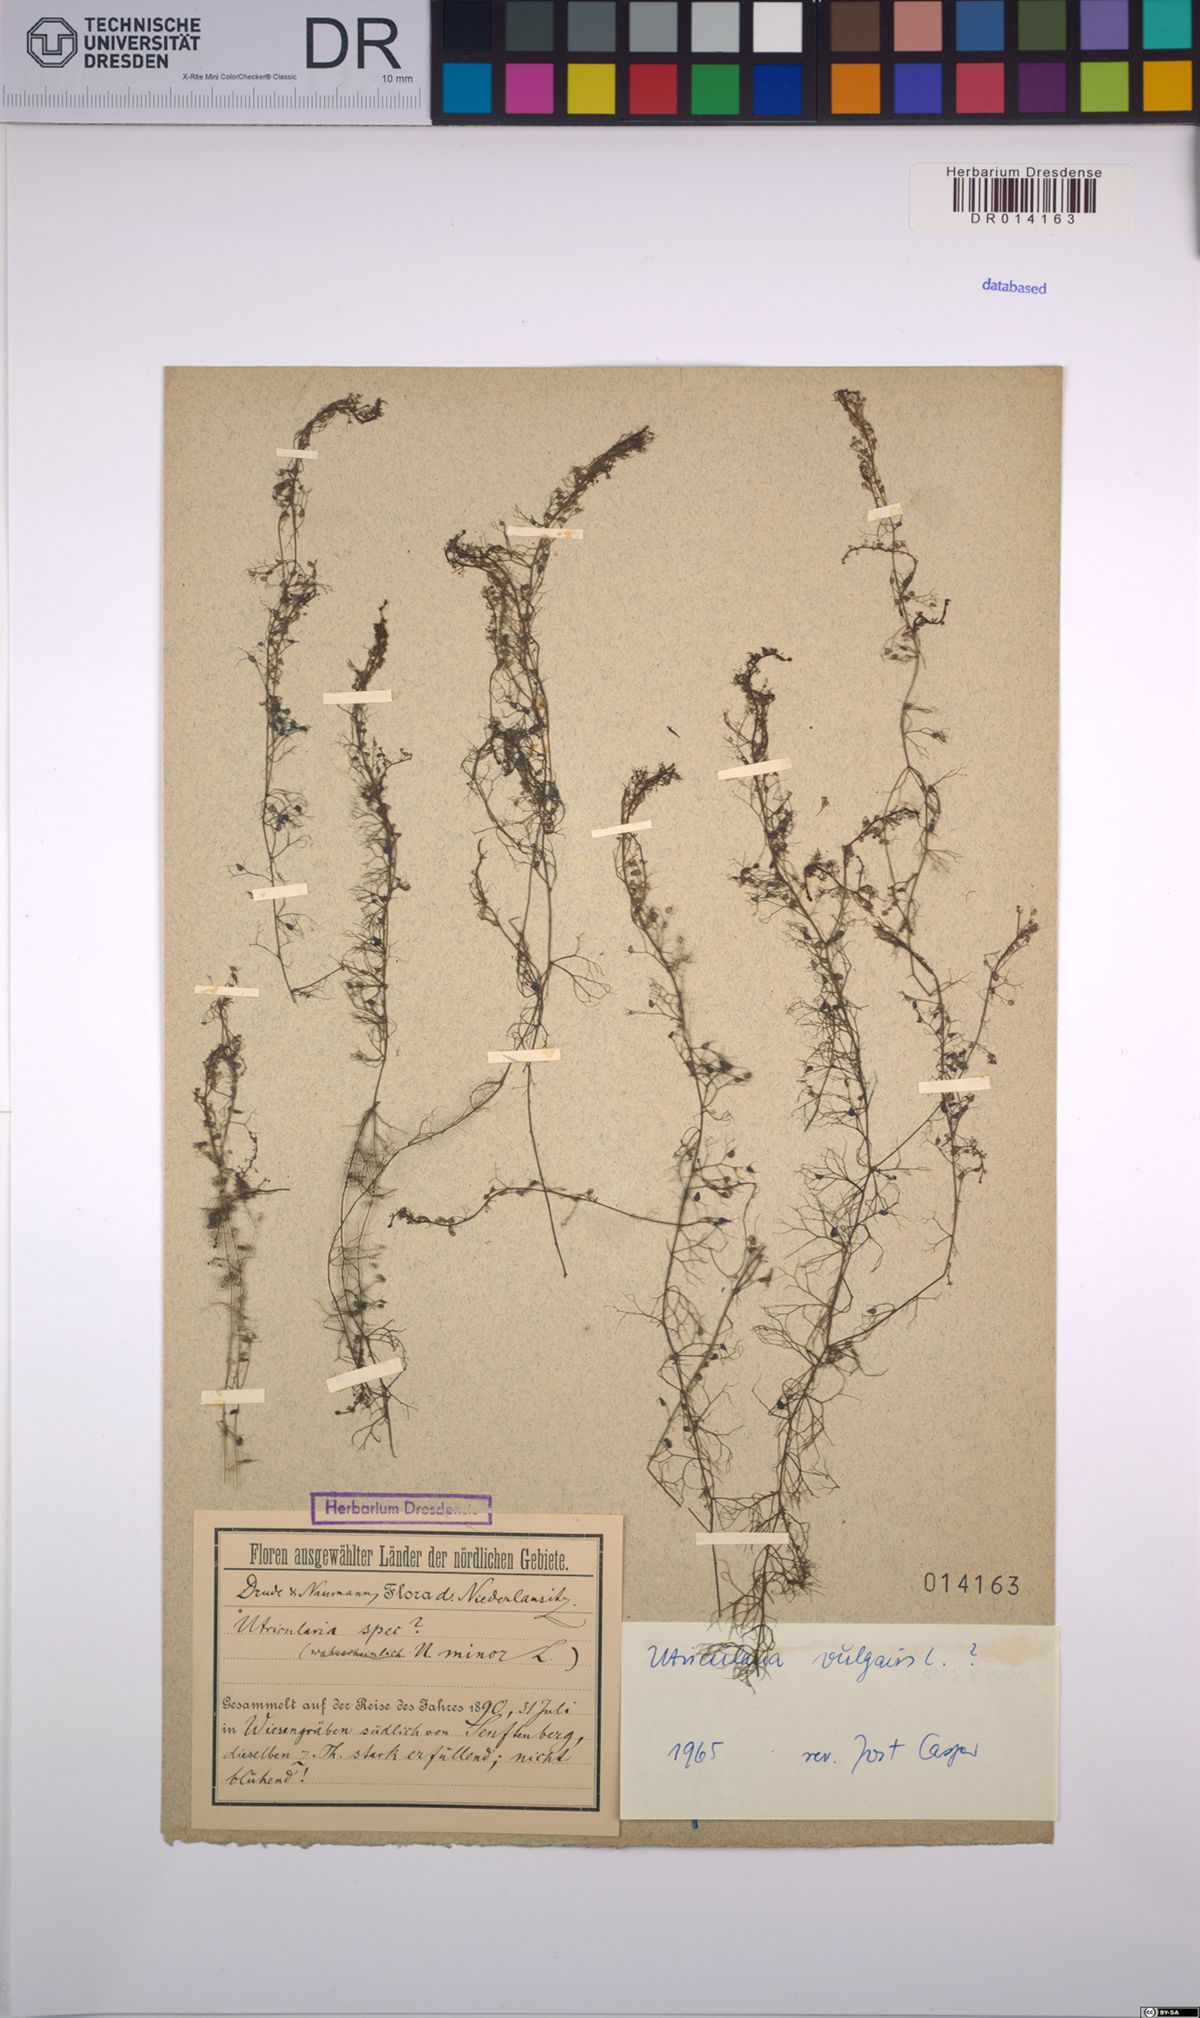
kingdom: Plantae
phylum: Tracheophyta
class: Magnoliopsida
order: Lamiales
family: Lentibulariaceae
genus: Utricularia
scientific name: Utricularia vulgaris
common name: Greater bladderwort
